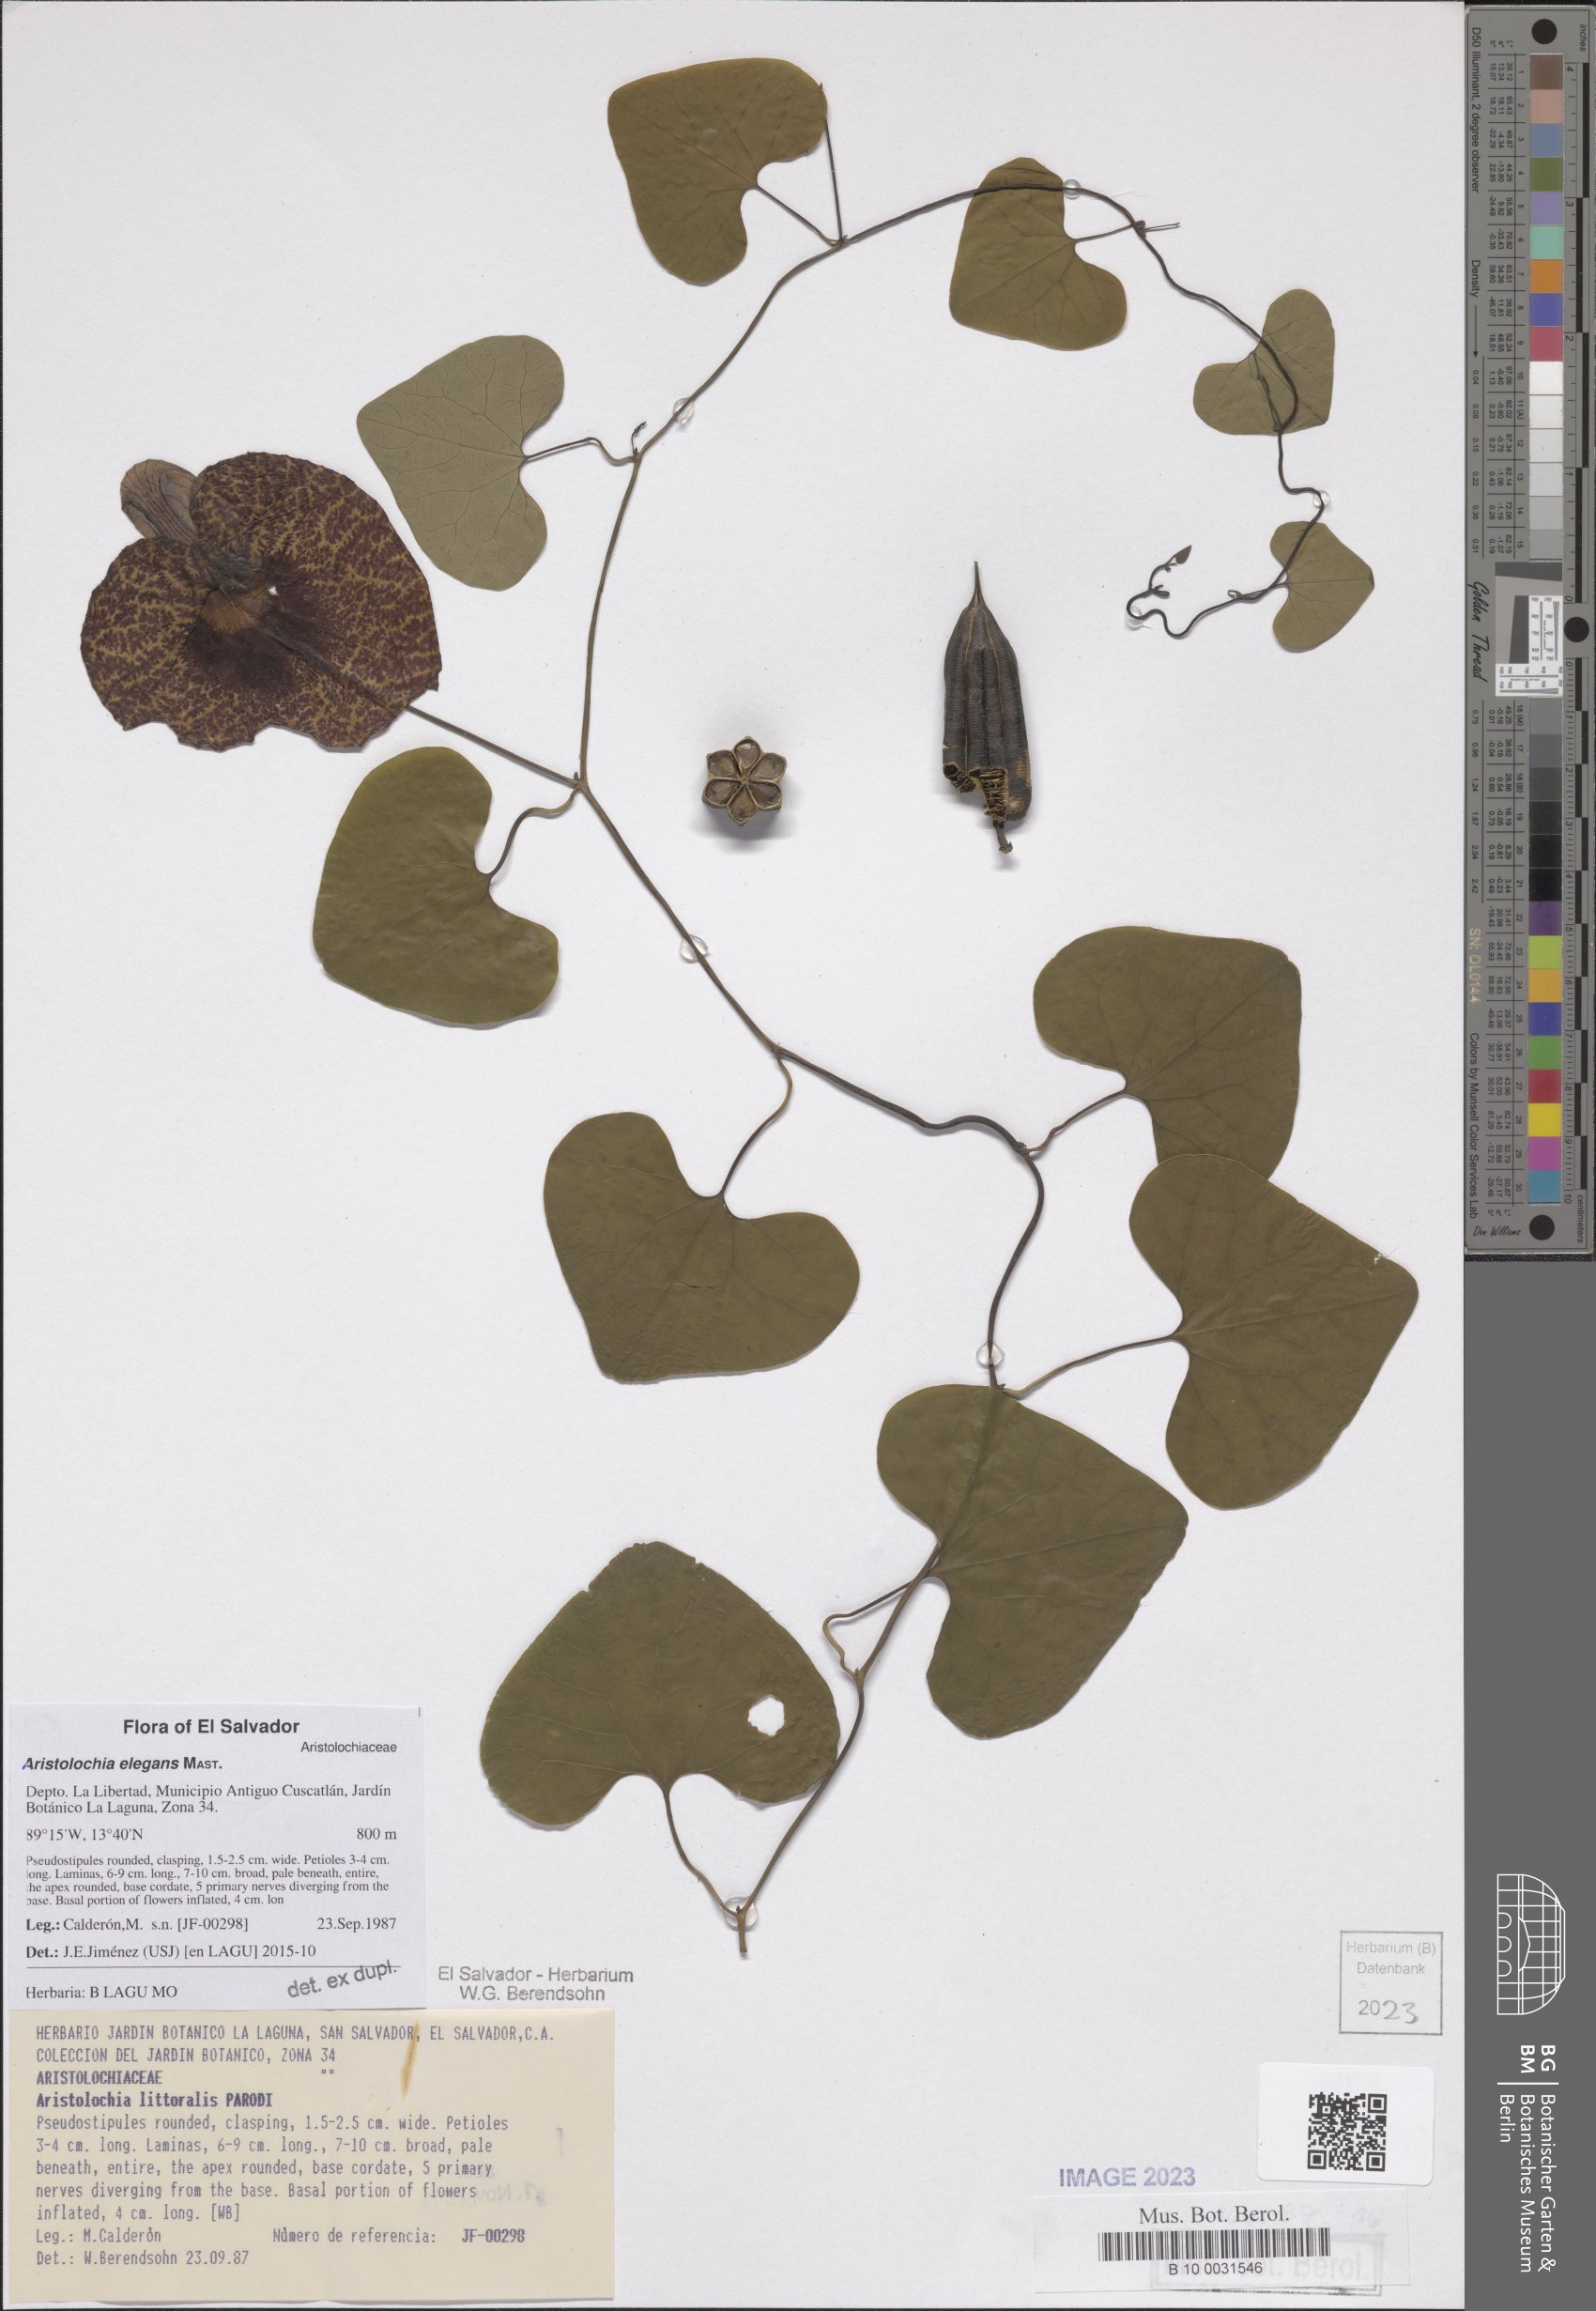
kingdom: Plantae
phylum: Tracheophyta
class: Magnoliopsida
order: Piperales
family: Aristolochiaceae
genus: Aristolochia
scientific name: Aristolochia littoralis
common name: Duck
